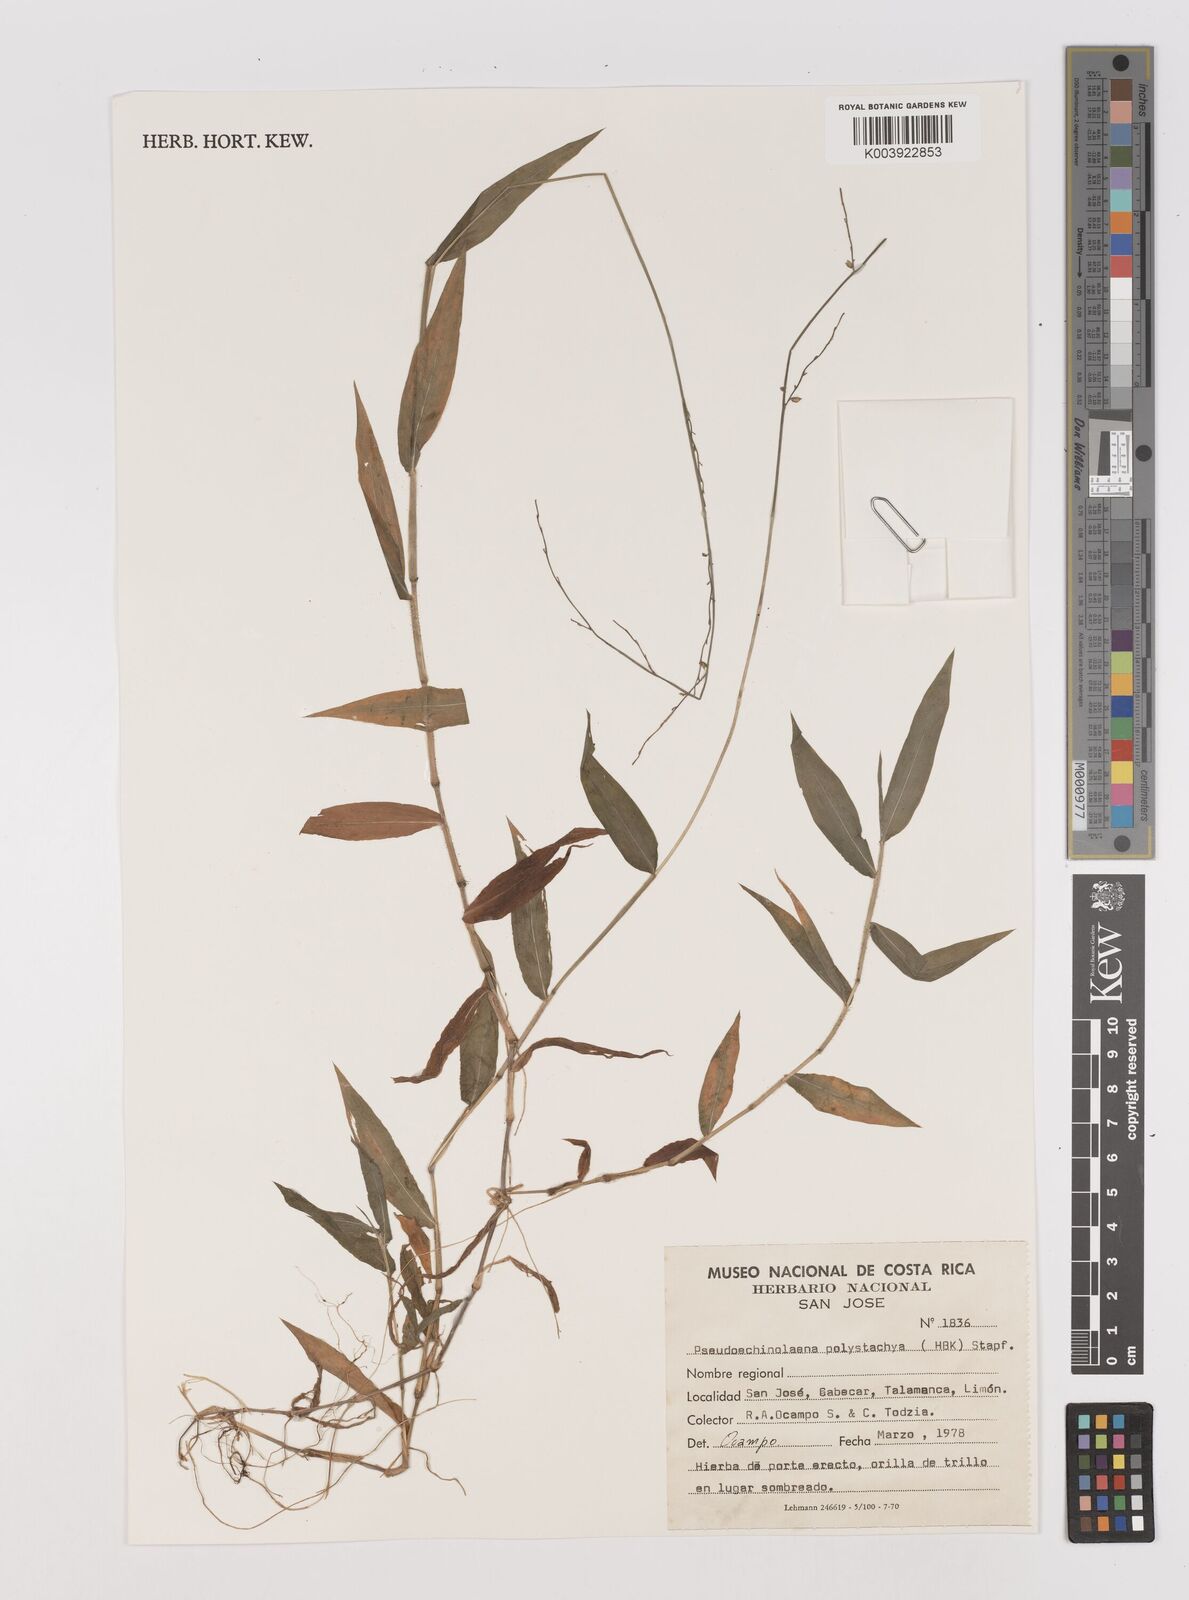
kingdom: Plantae
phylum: Tracheophyta
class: Liliopsida
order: Poales
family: Poaceae
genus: Pseudechinolaena
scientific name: Pseudechinolaena polystachya
